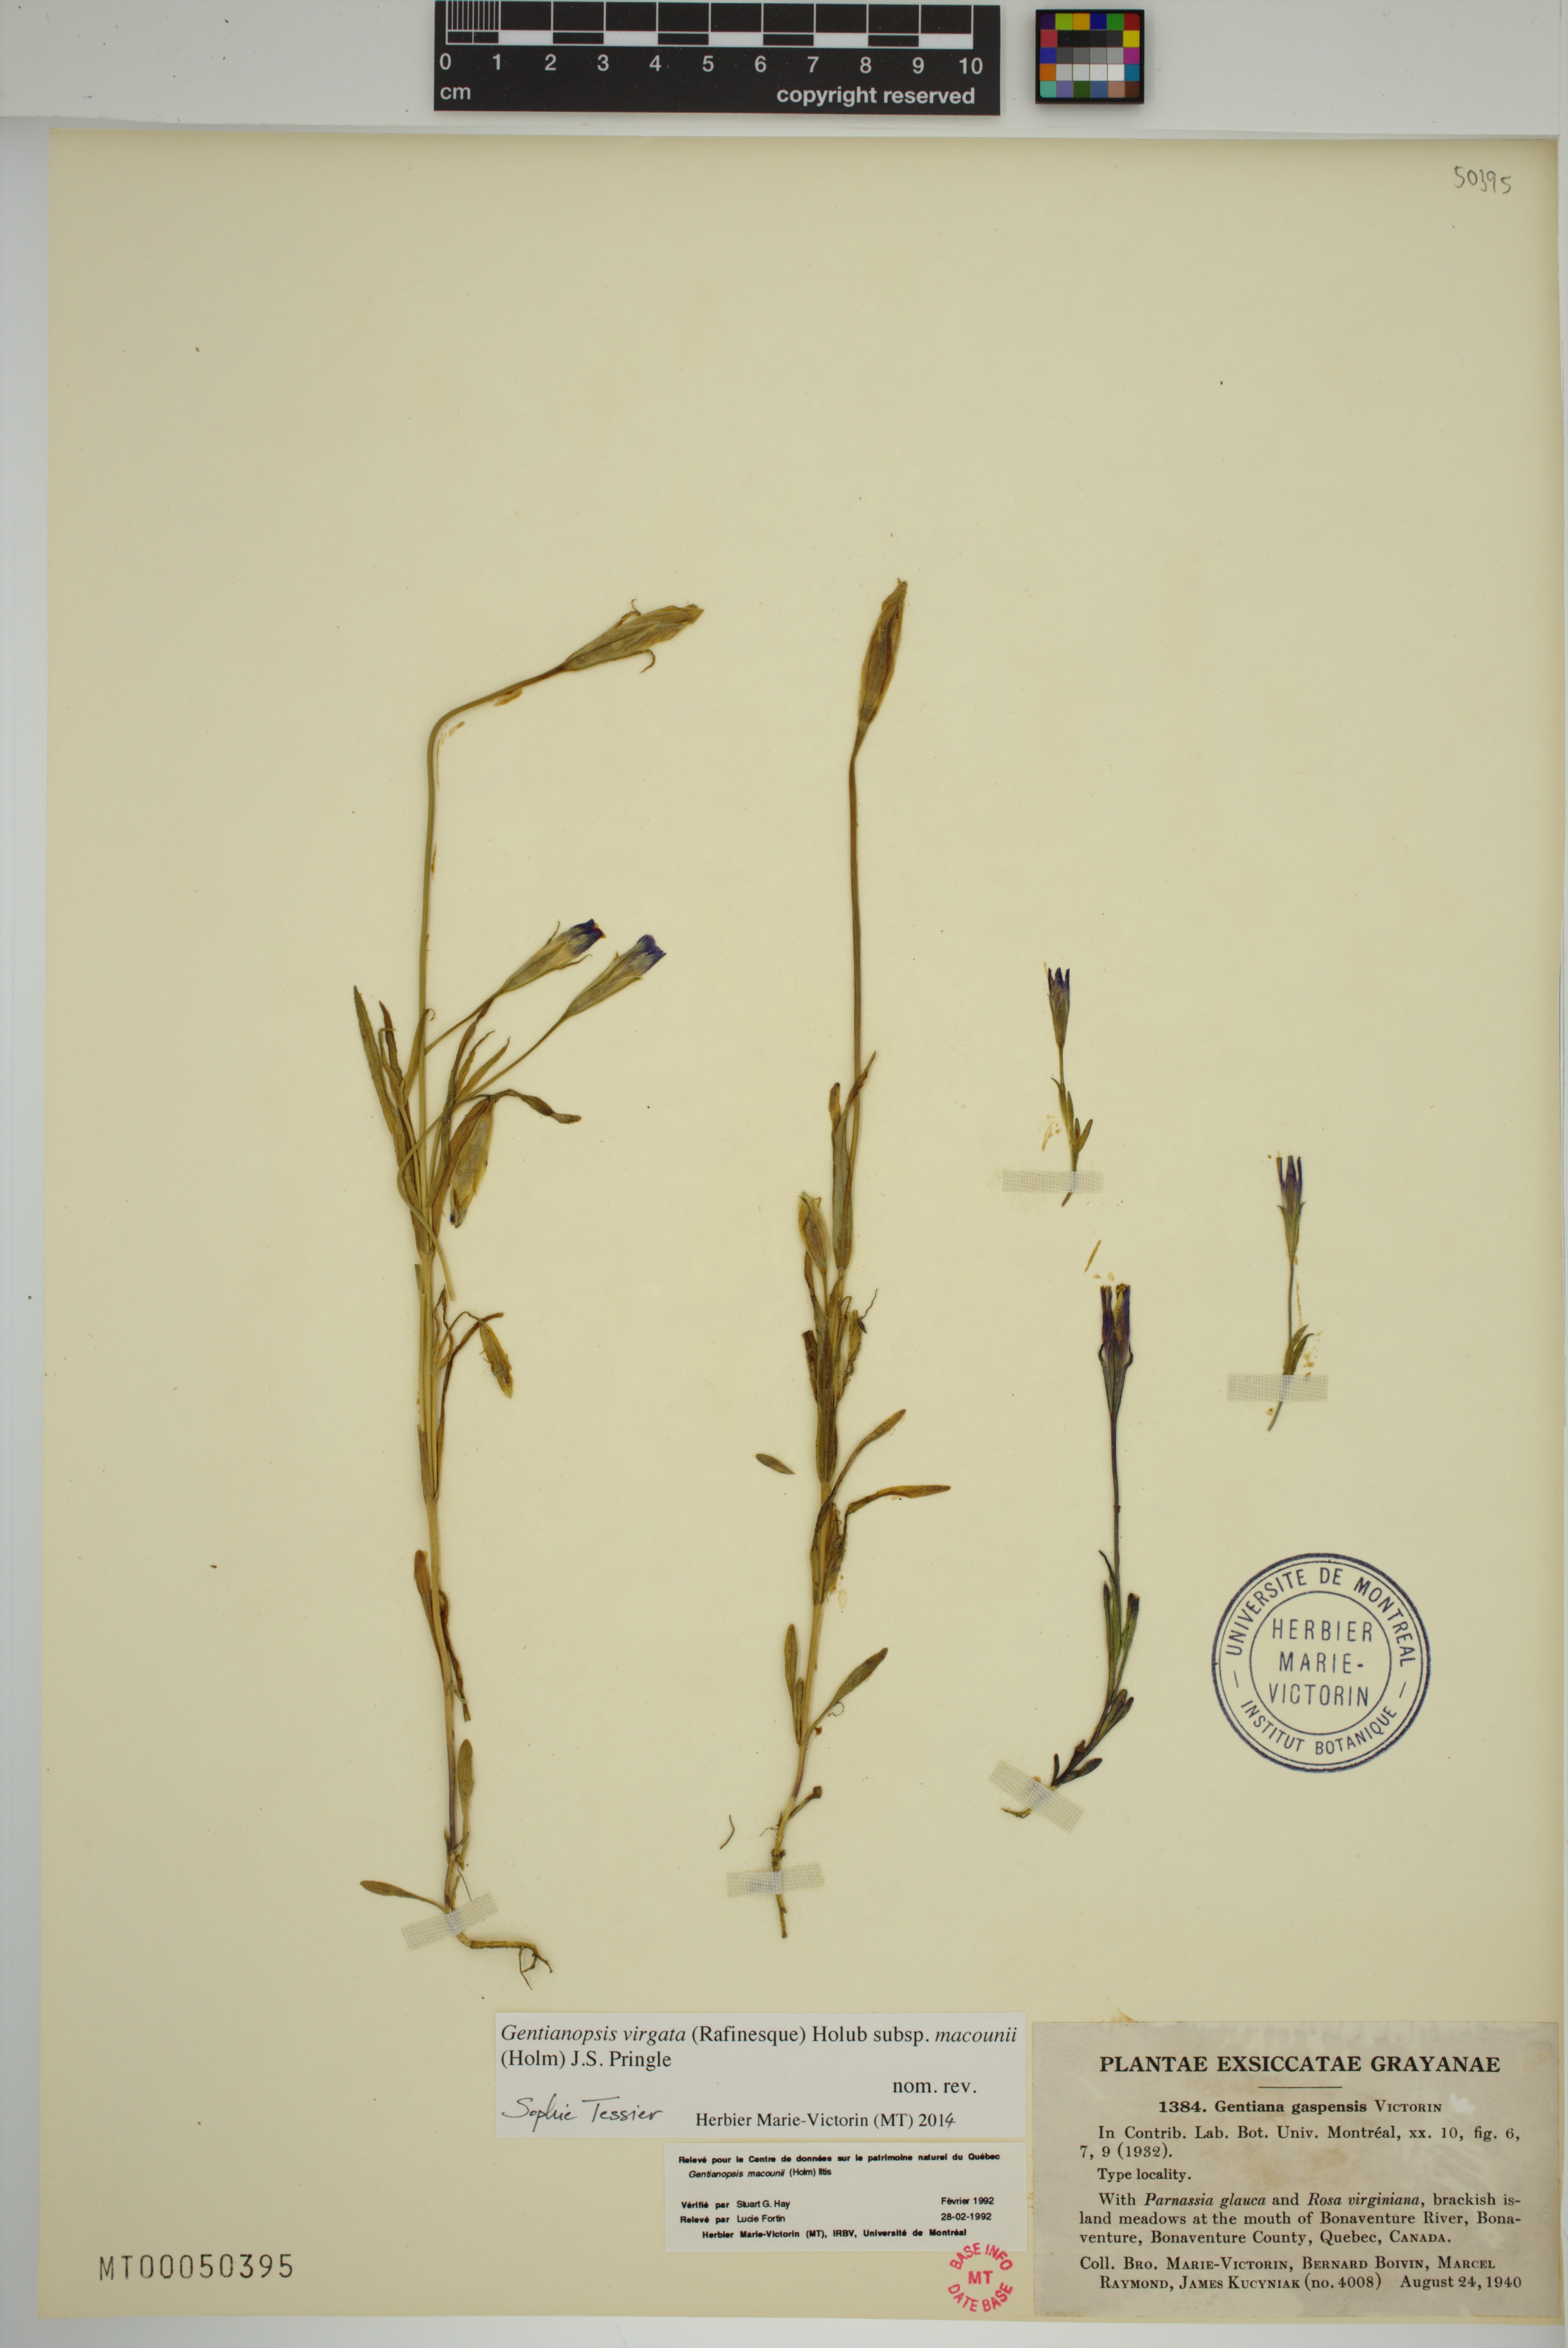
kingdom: Plantae
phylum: Tracheophyta
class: Magnoliopsida
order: Gentianales
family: Gentianaceae
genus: Gentianopsis
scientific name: Gentianopsis macounii
